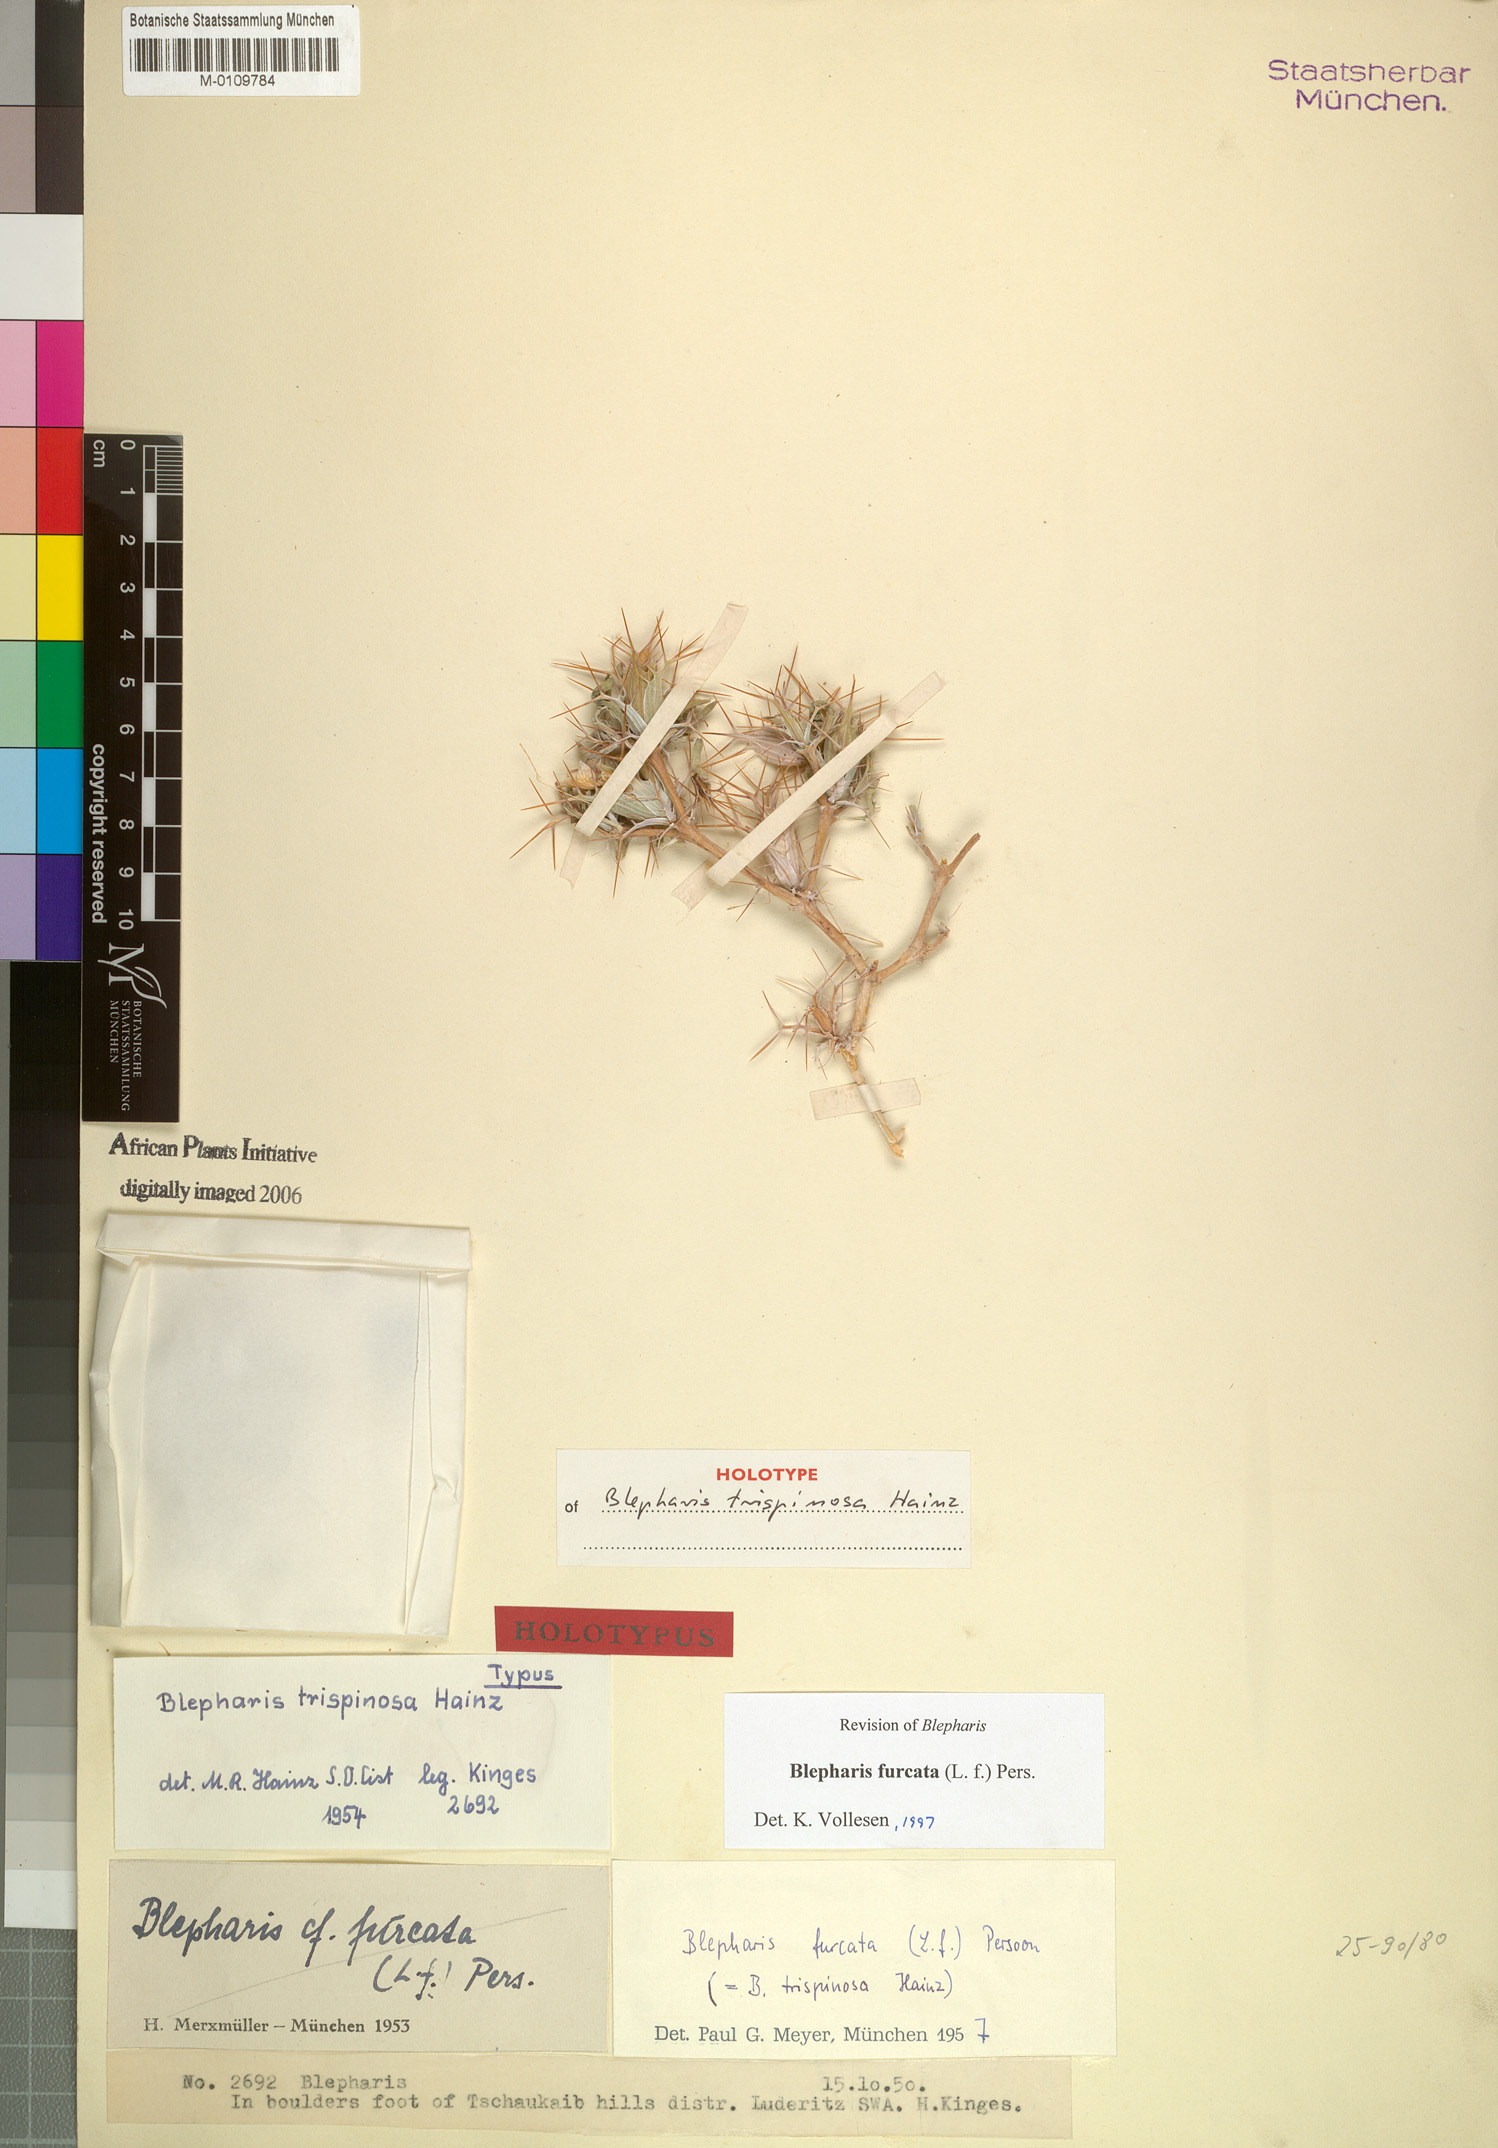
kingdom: Plantae
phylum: Tracheophyta
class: Magnoliopsida
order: Lamiales
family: Acanthaceae
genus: Blepharis
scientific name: Blepharis furcata
